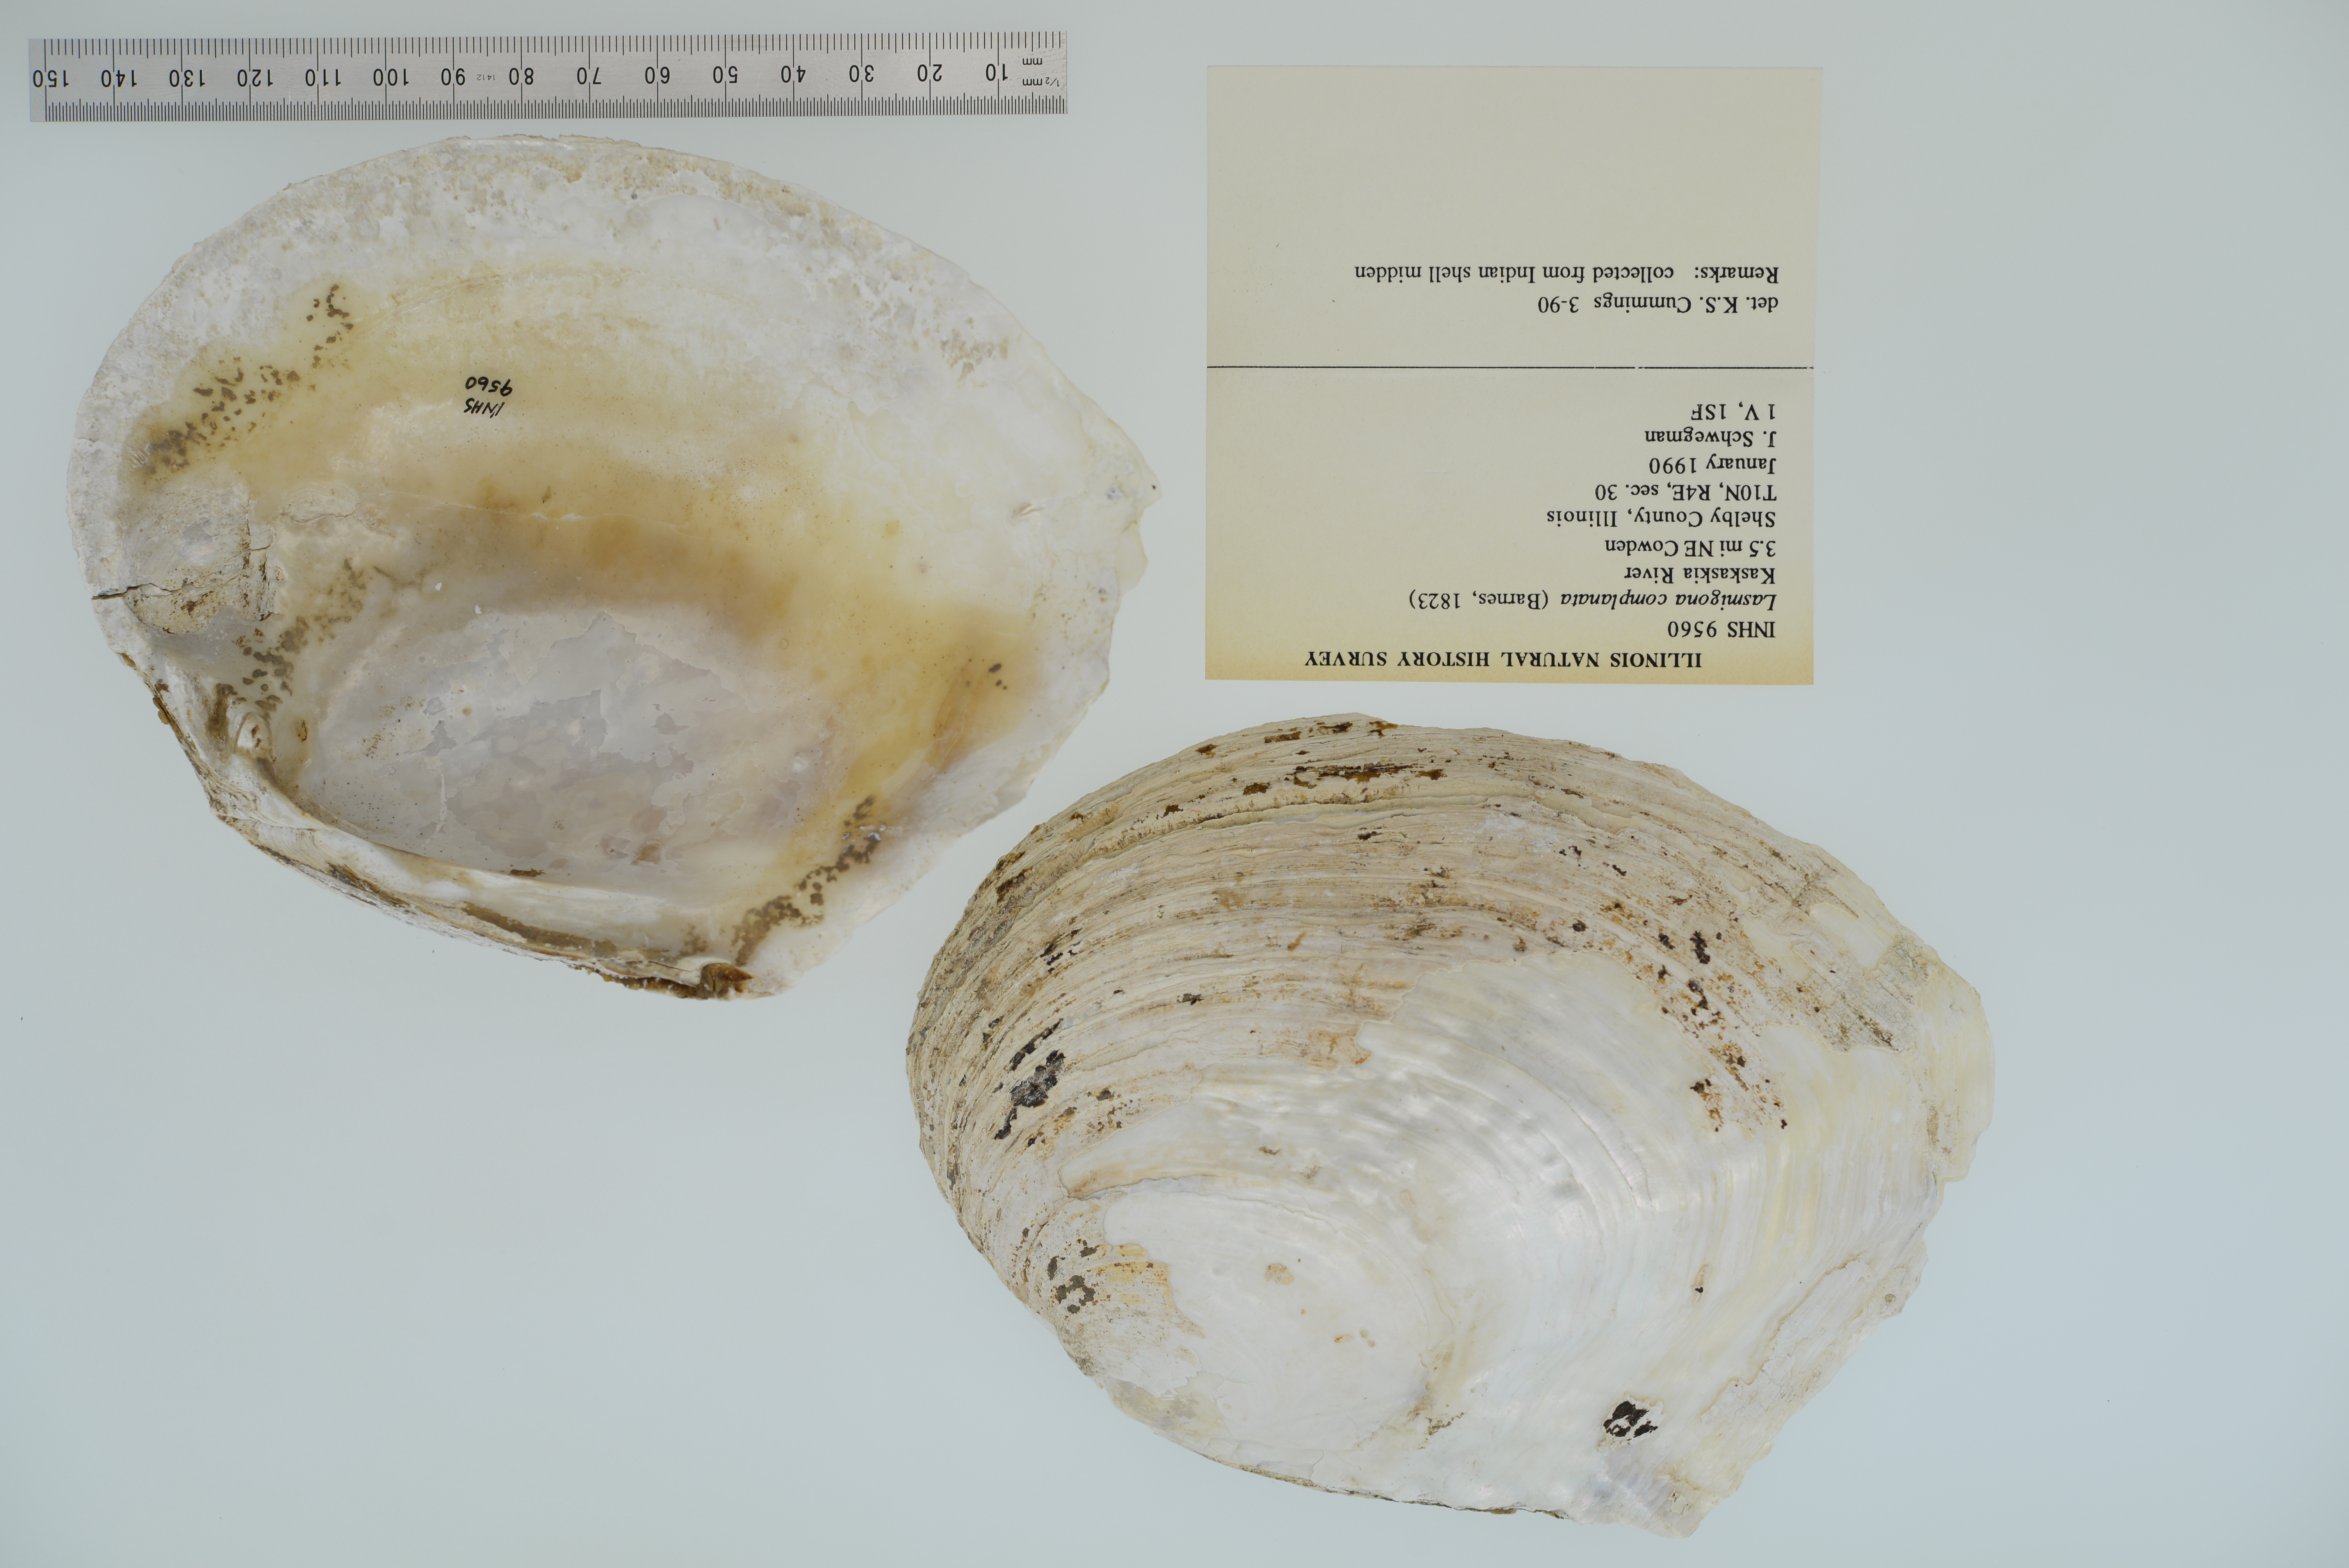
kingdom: Animalia
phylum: Mollusca
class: Bivalvia
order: Unionida
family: Unionidae
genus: Lasmigona
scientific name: Lasmigona complanata
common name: White heelsplitter
